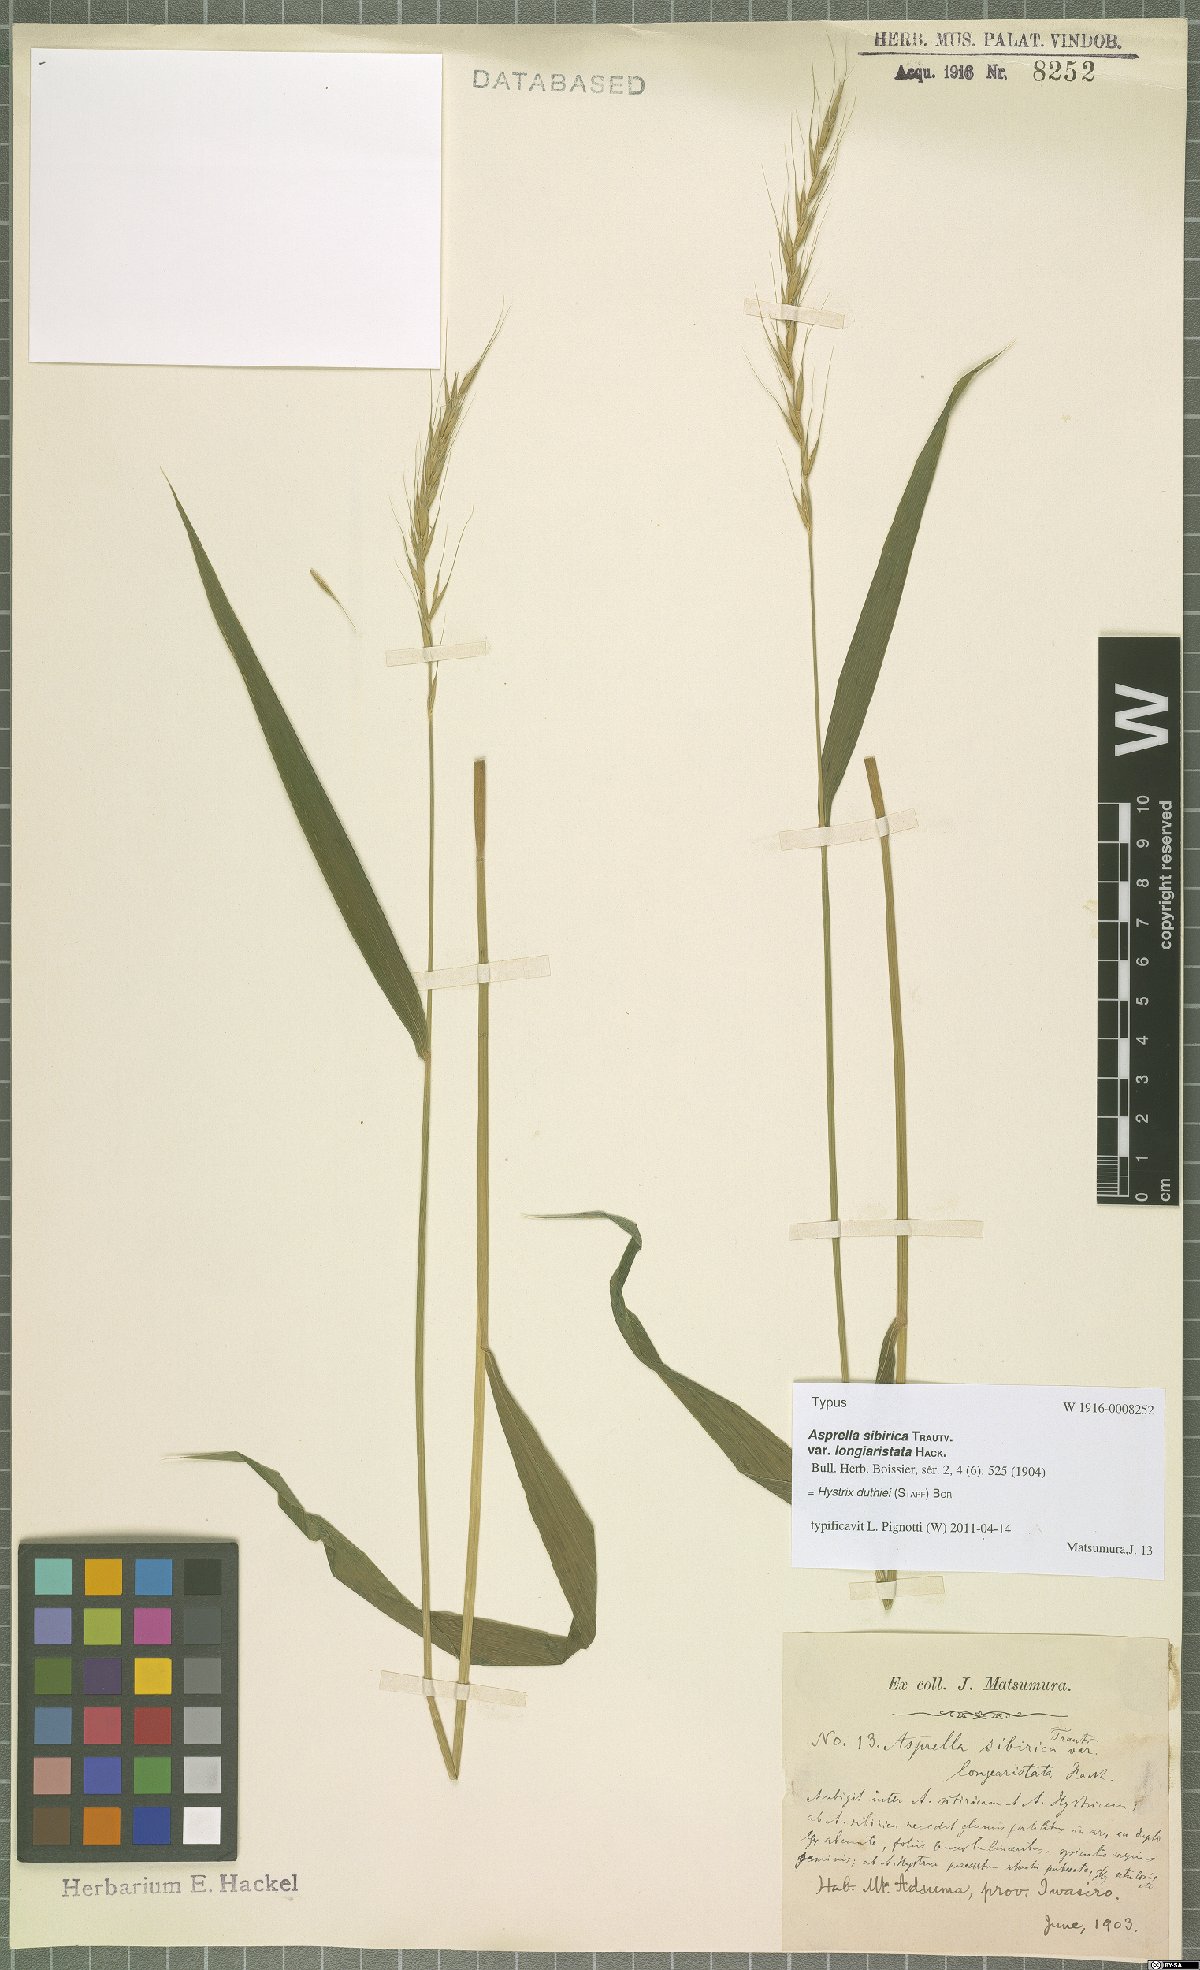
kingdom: Plantae
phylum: Tracheophyta
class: Liliopsida
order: Poales
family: Poaceae
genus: Leymus
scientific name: Leymus duthiei
